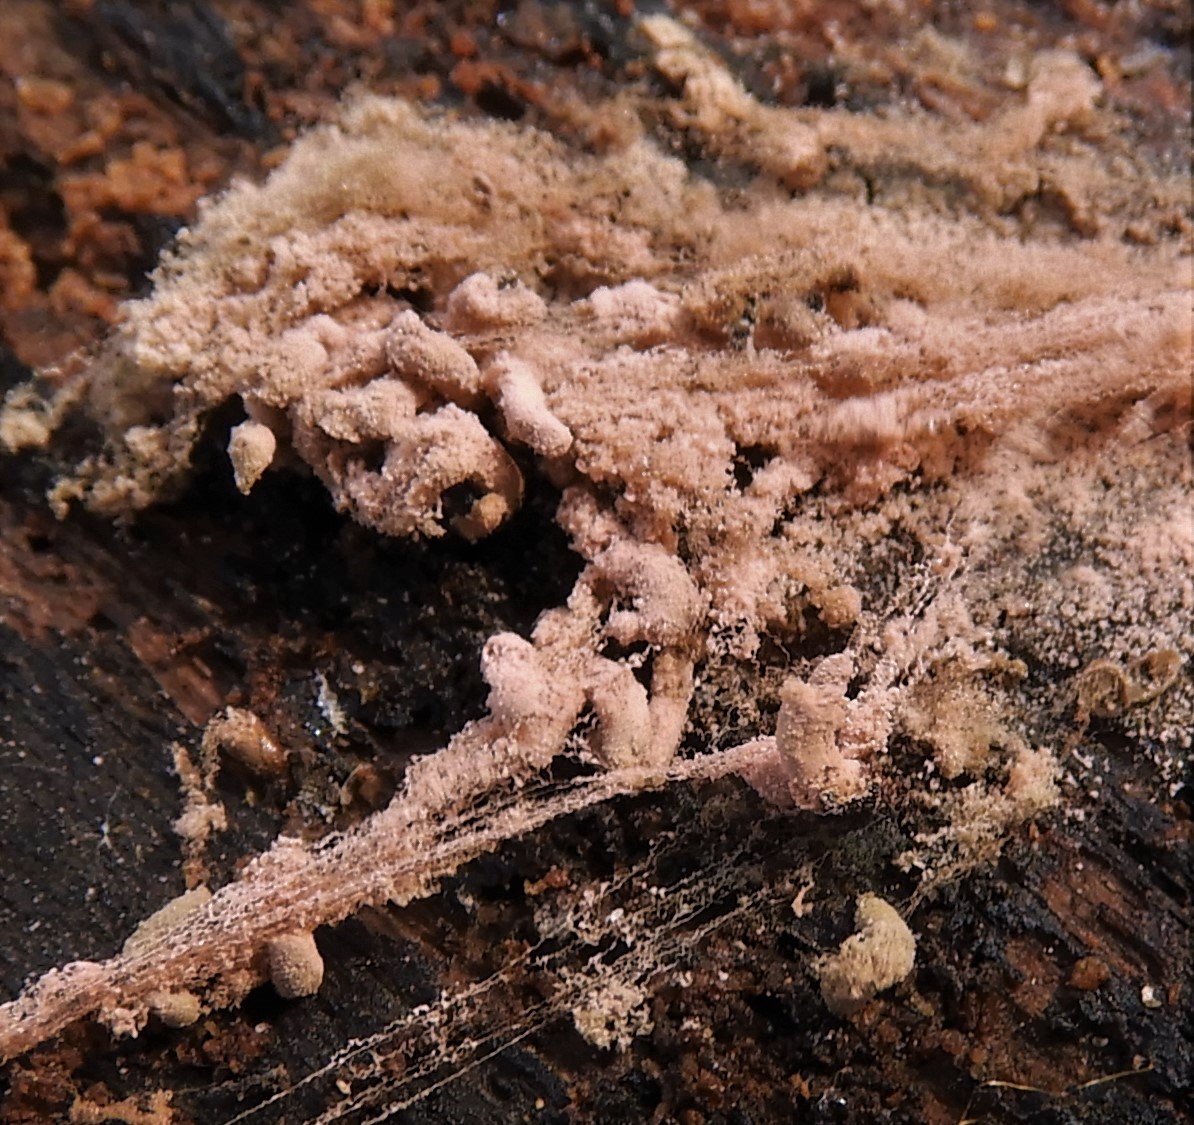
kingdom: Protozoa
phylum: Mycetozoa
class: Myxomycetes
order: Trichiales
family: Arcyriaceae
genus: Arcyria
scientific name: Arcyria stipata
